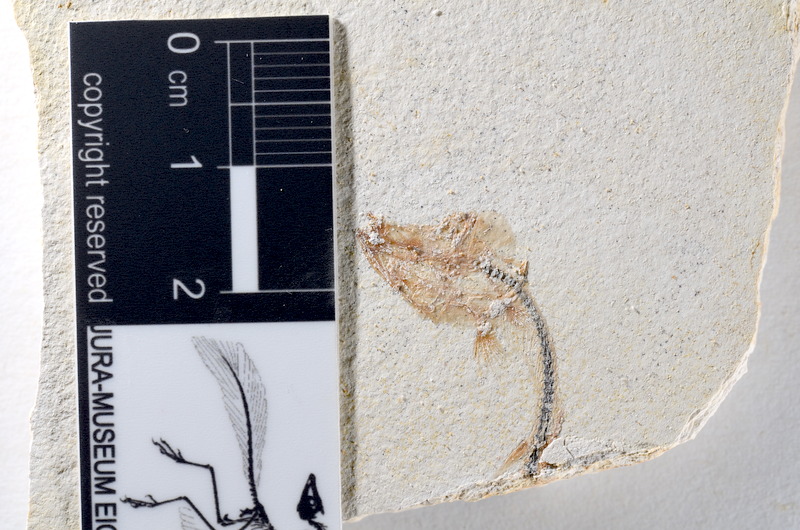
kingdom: Animalia
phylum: Chordata
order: Salmoniformes
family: Orthogonikleithridae
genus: Orthogonikleithrus
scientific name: Orthogonikleithrus hoelli
